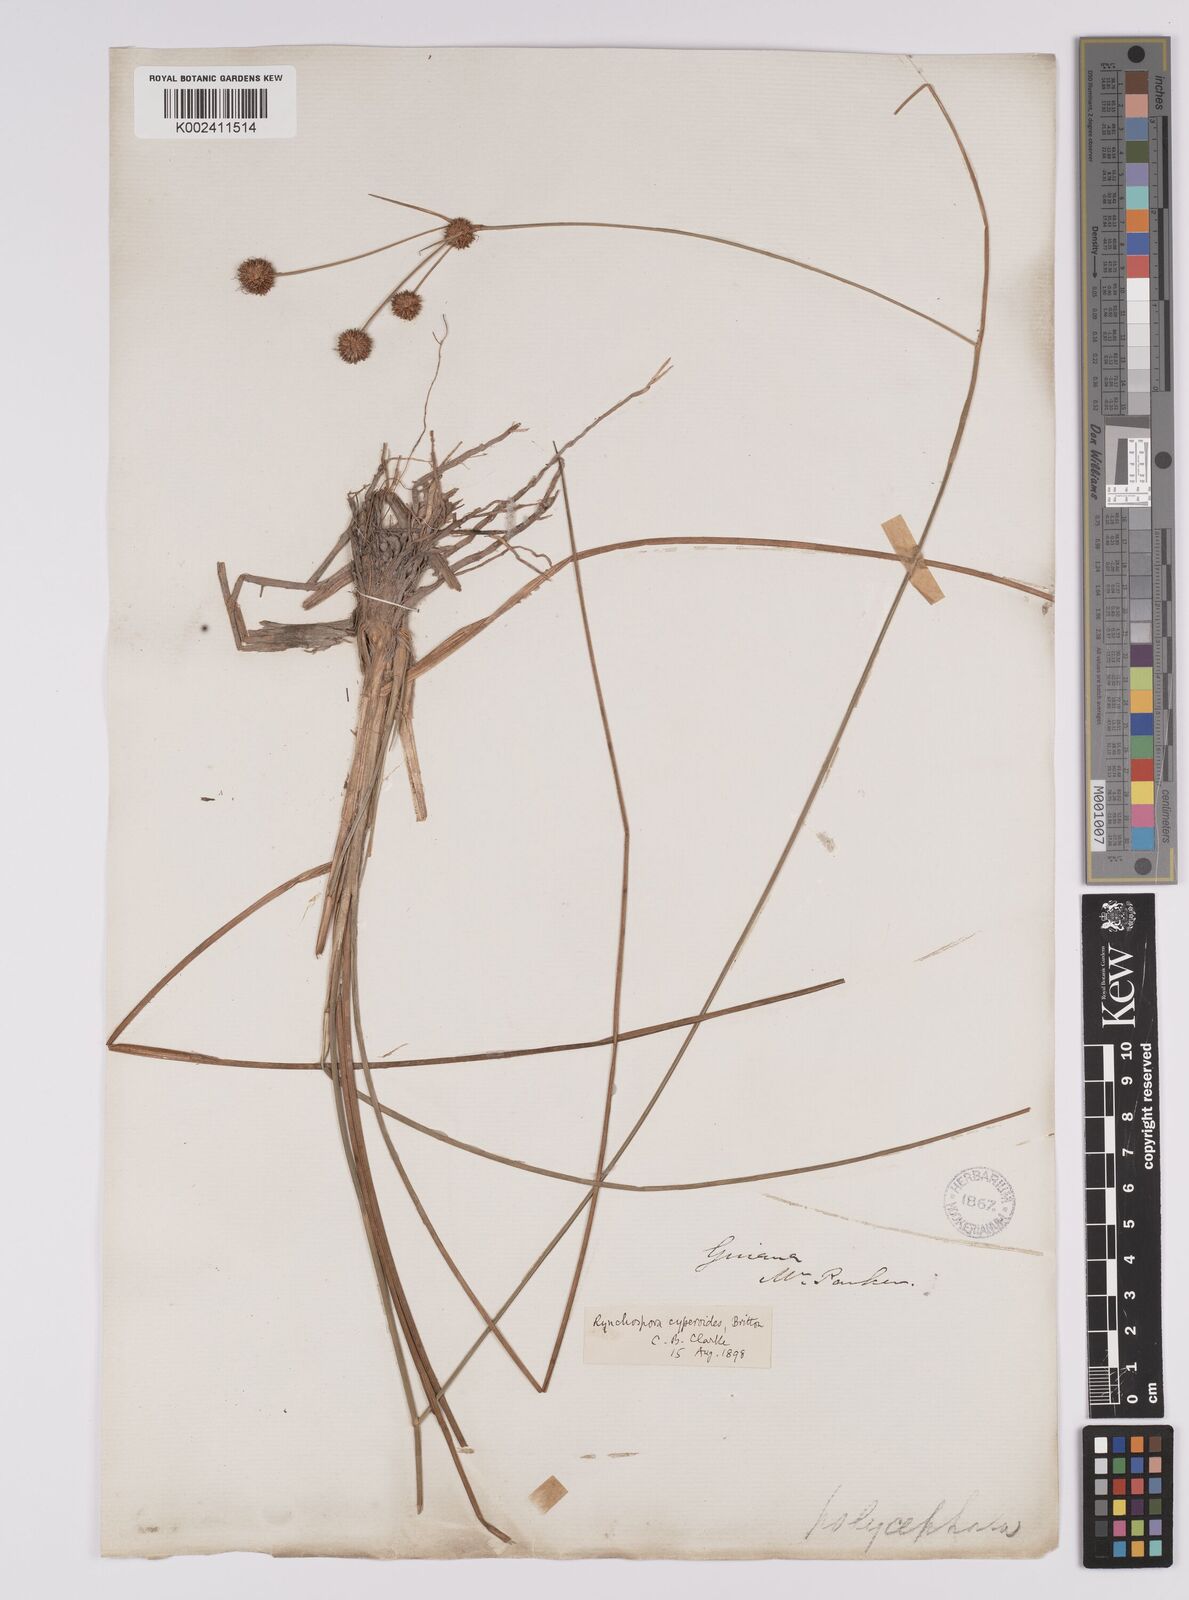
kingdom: Plantae
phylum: Tracheophyta
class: Liliopsida
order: Poales
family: Cyperaceae
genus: Rhynchospora
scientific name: Rhynchospora holoschoenoides
